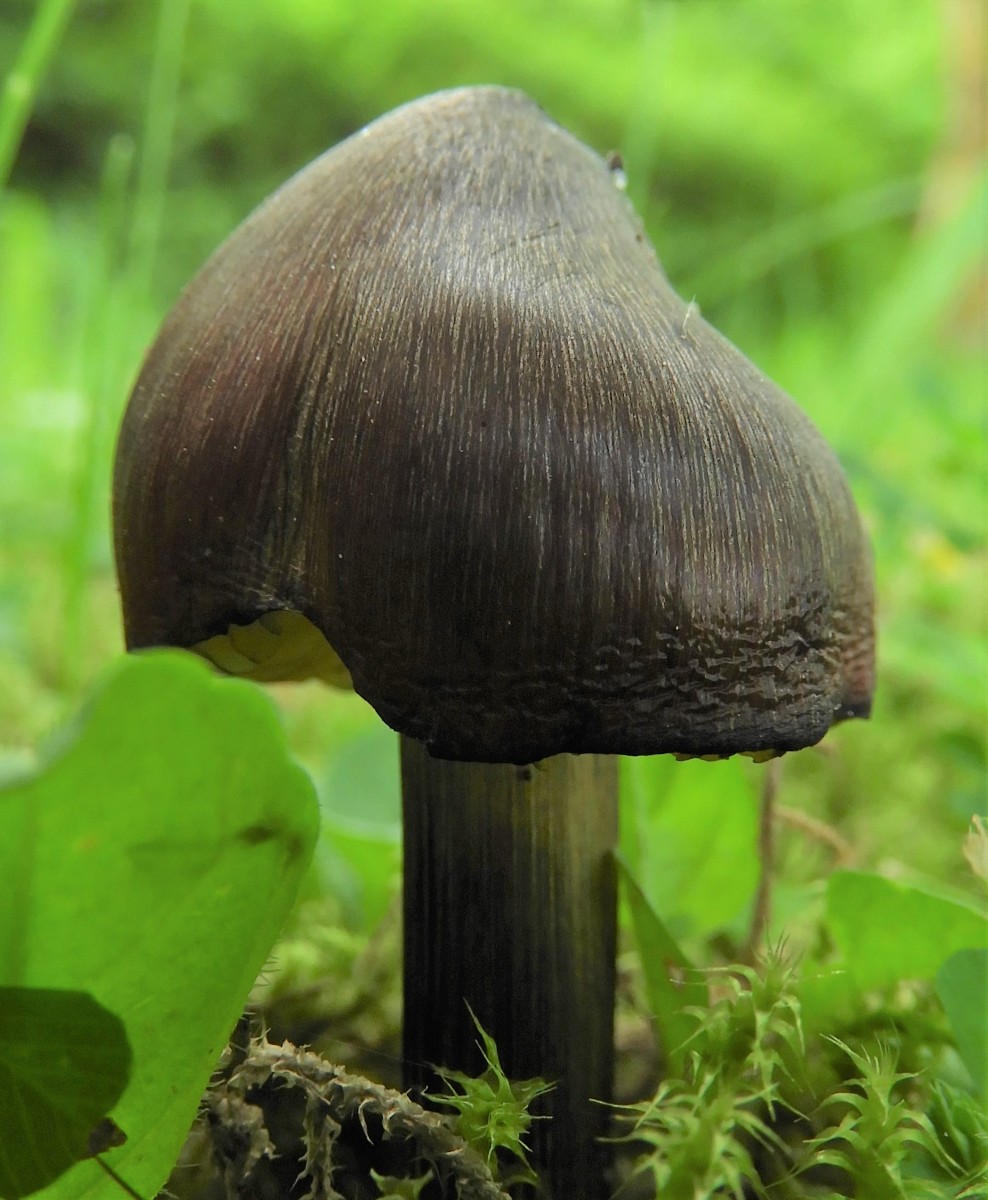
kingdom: Fungi
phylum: Basidiomycota
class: Agaricomycetes
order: Agaricales
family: Hygrophoraceae
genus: Hygrocybe
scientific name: Hygrocybe conica
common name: kegle-vokshat
